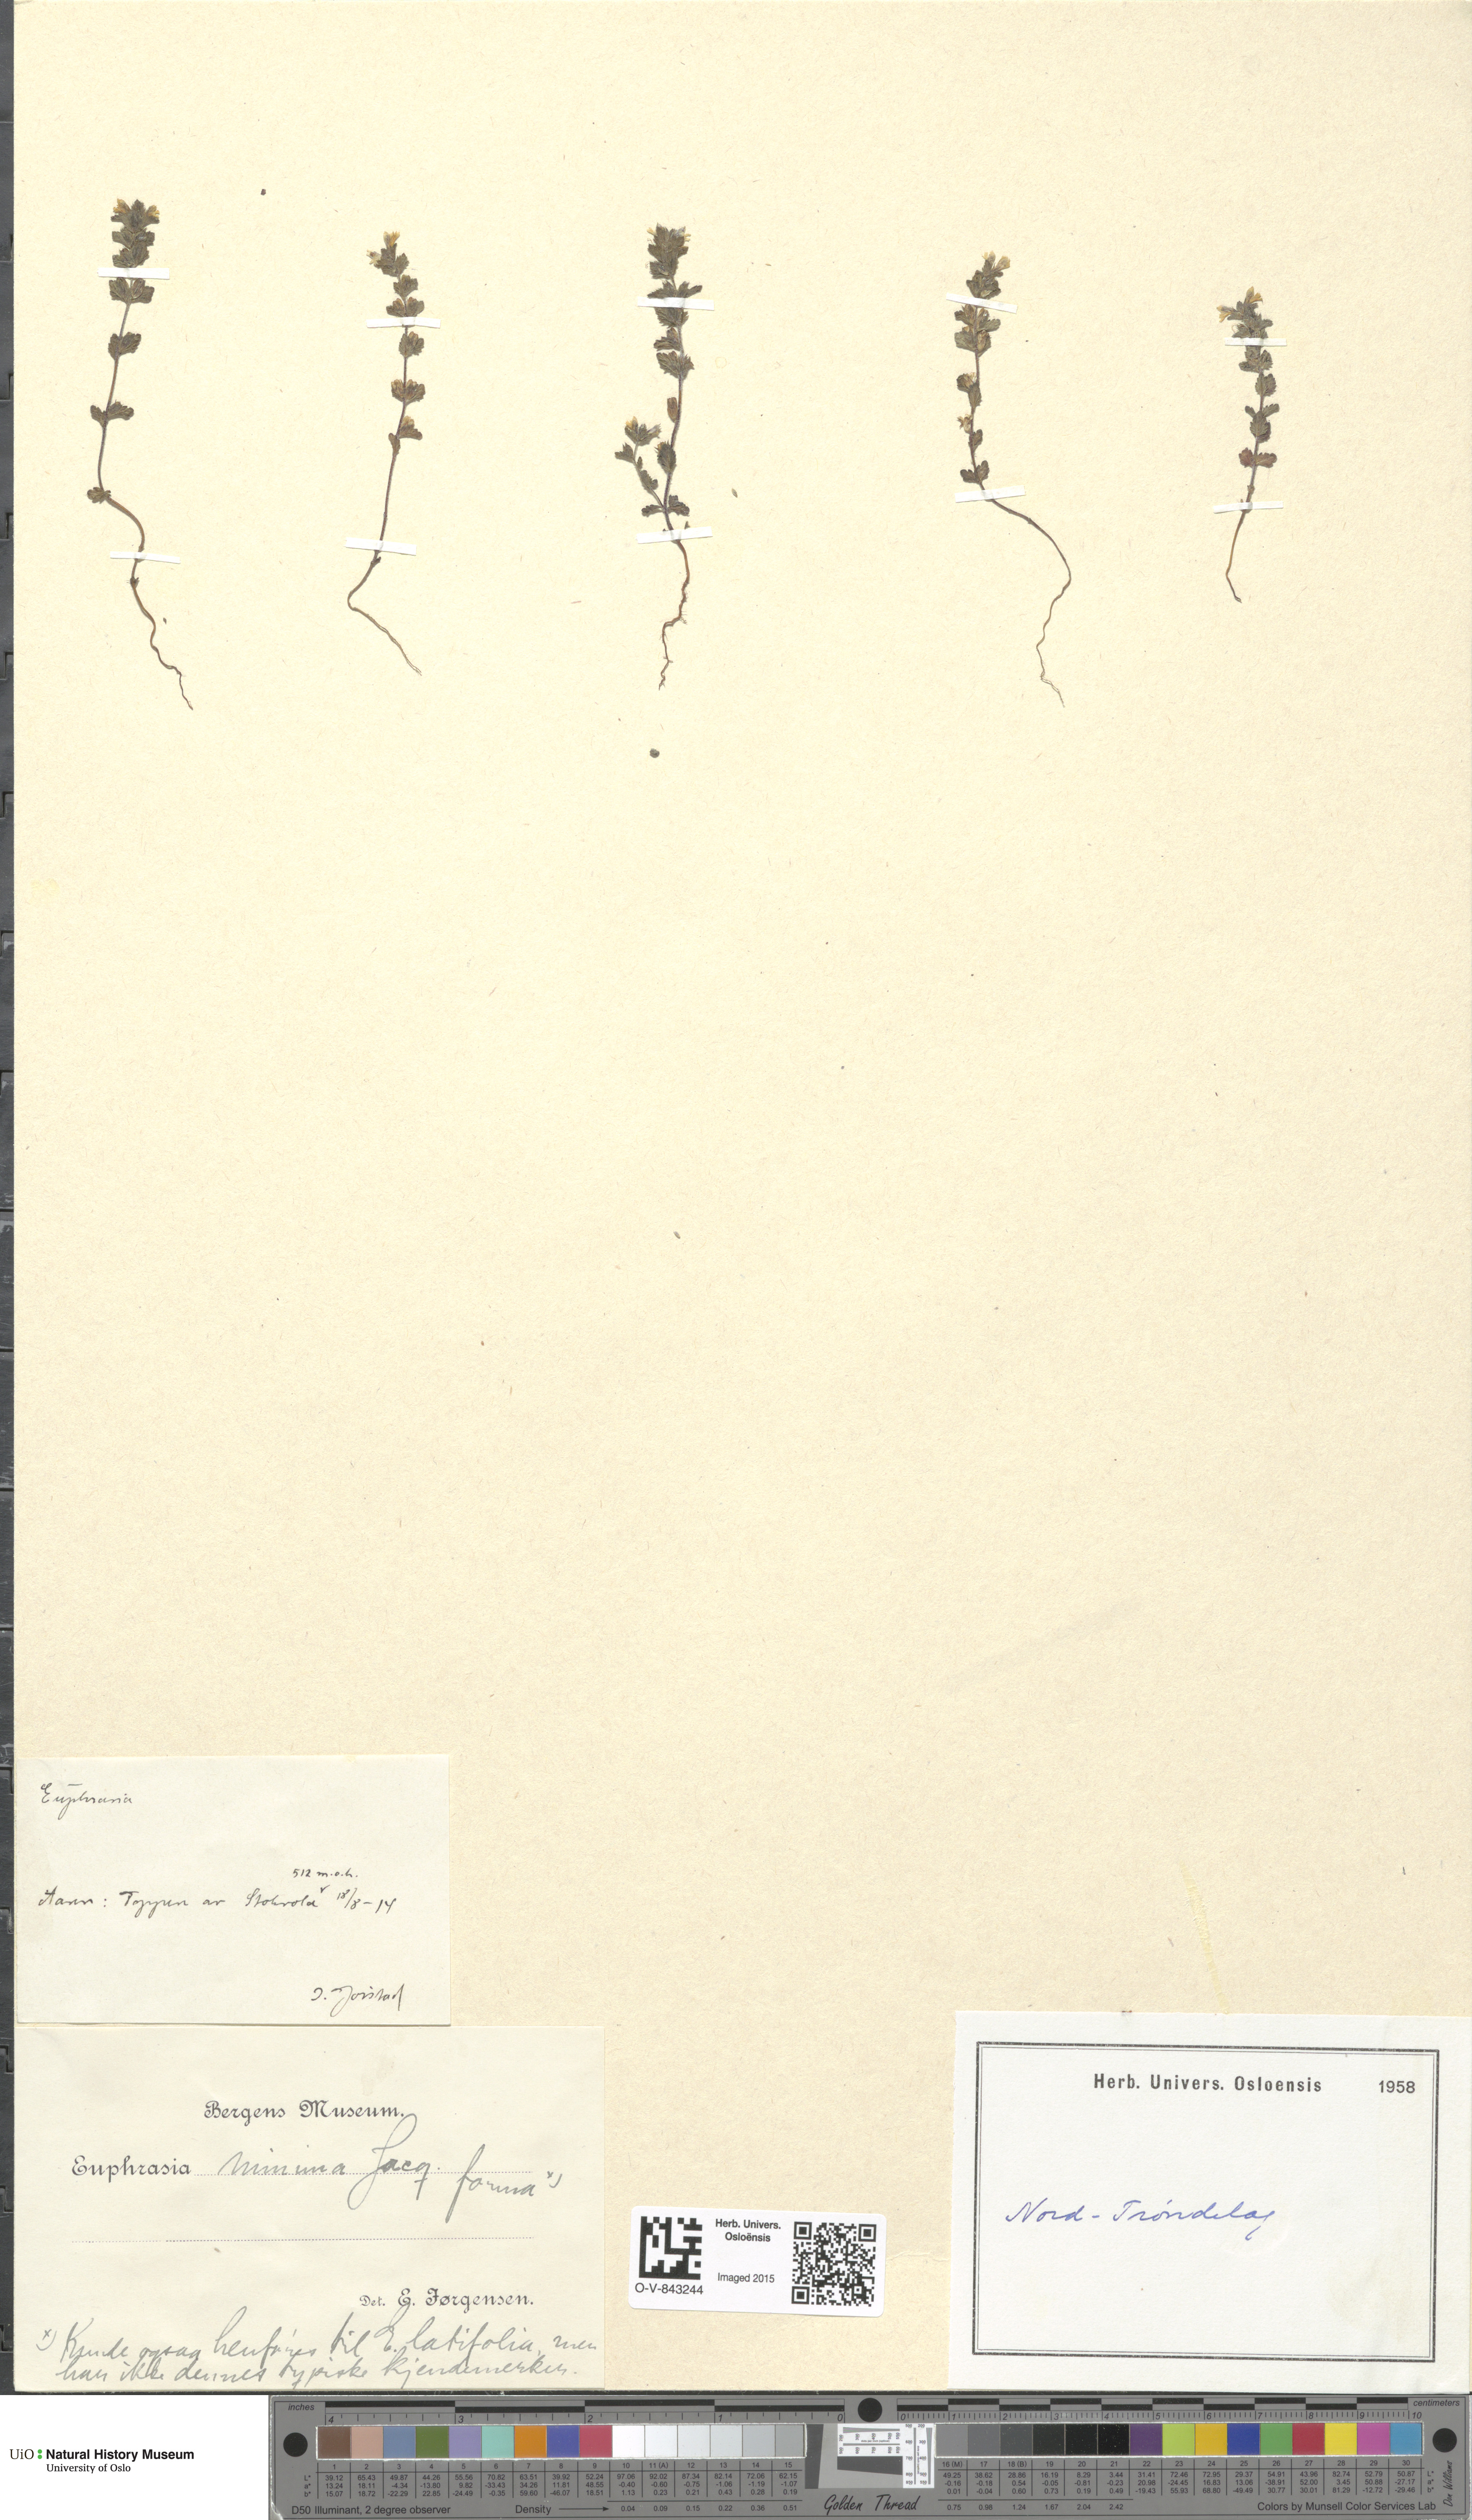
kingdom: Plantae
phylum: Tracheophyta
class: Magnoliopsida
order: Lamiales
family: Orobanchaceae
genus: Euphrasia
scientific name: Euphrasia wettsteinii
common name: Wettstein's eyebright
